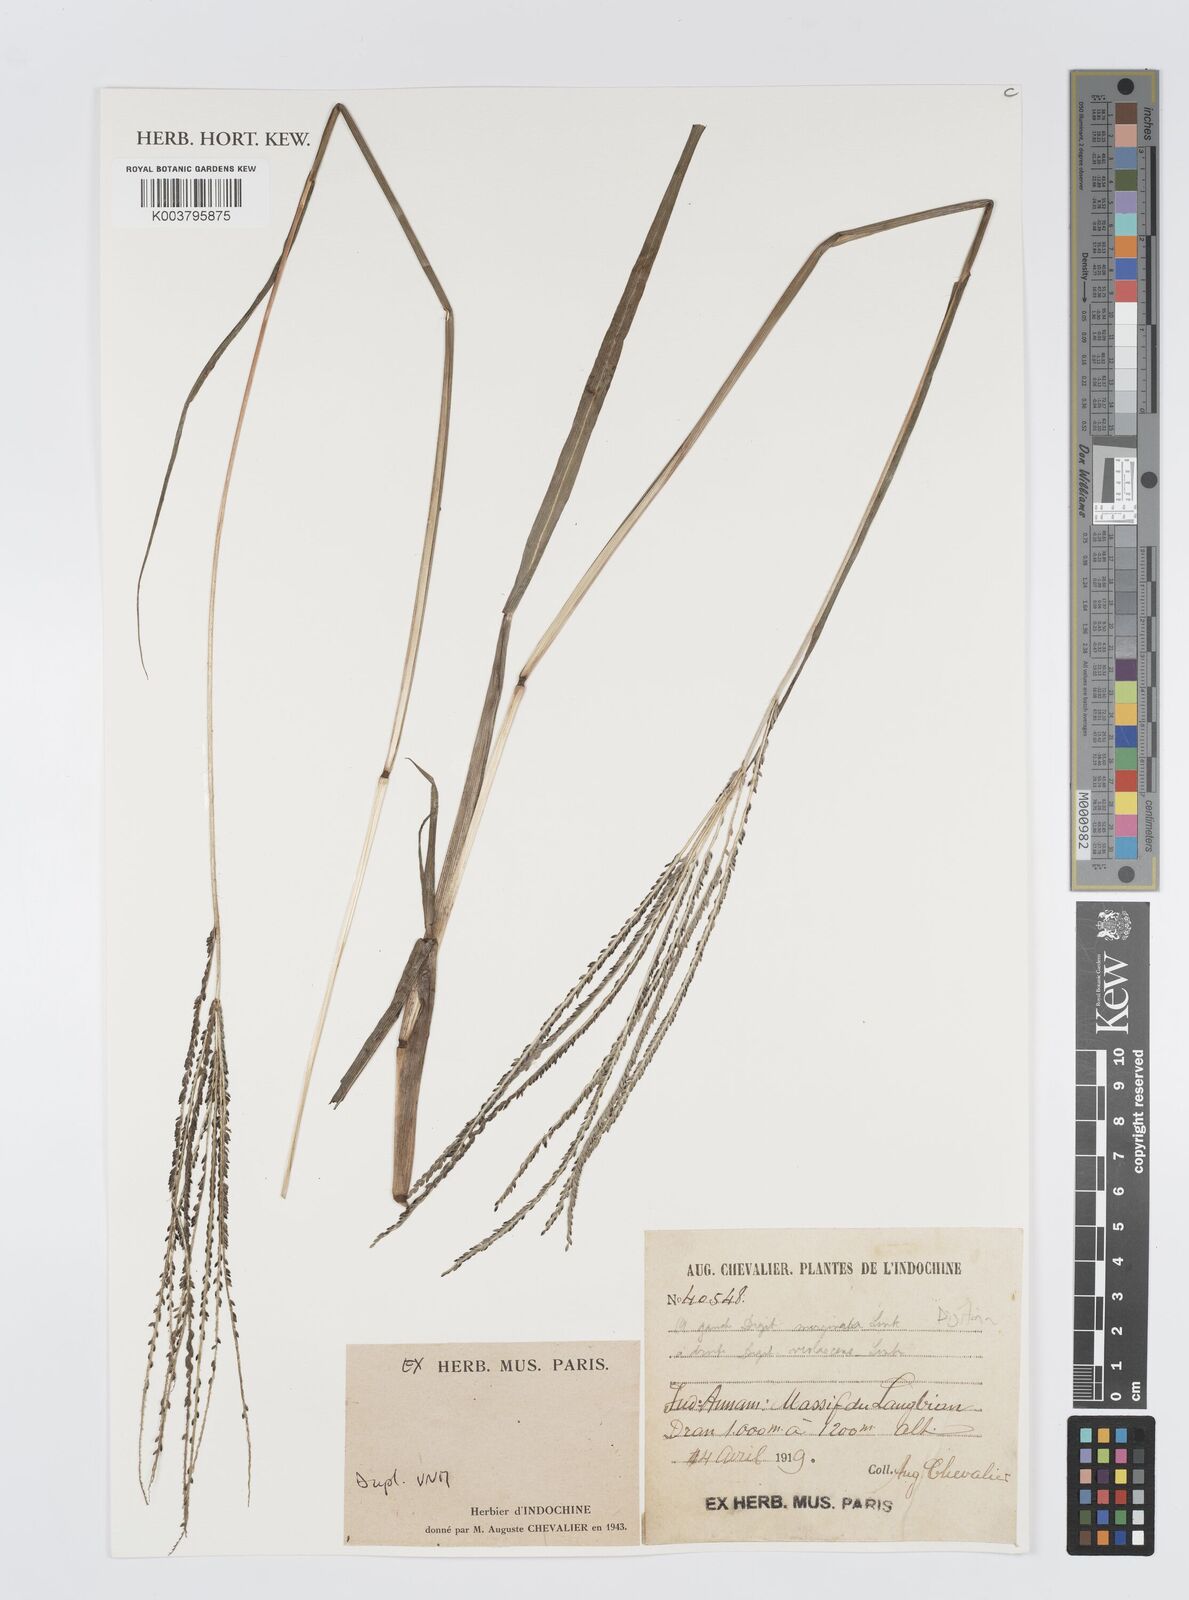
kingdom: Plantae
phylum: Tracheophyta
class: Liliopsida
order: Poales
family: Poaceae
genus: Digitaria
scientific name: Digitaria
